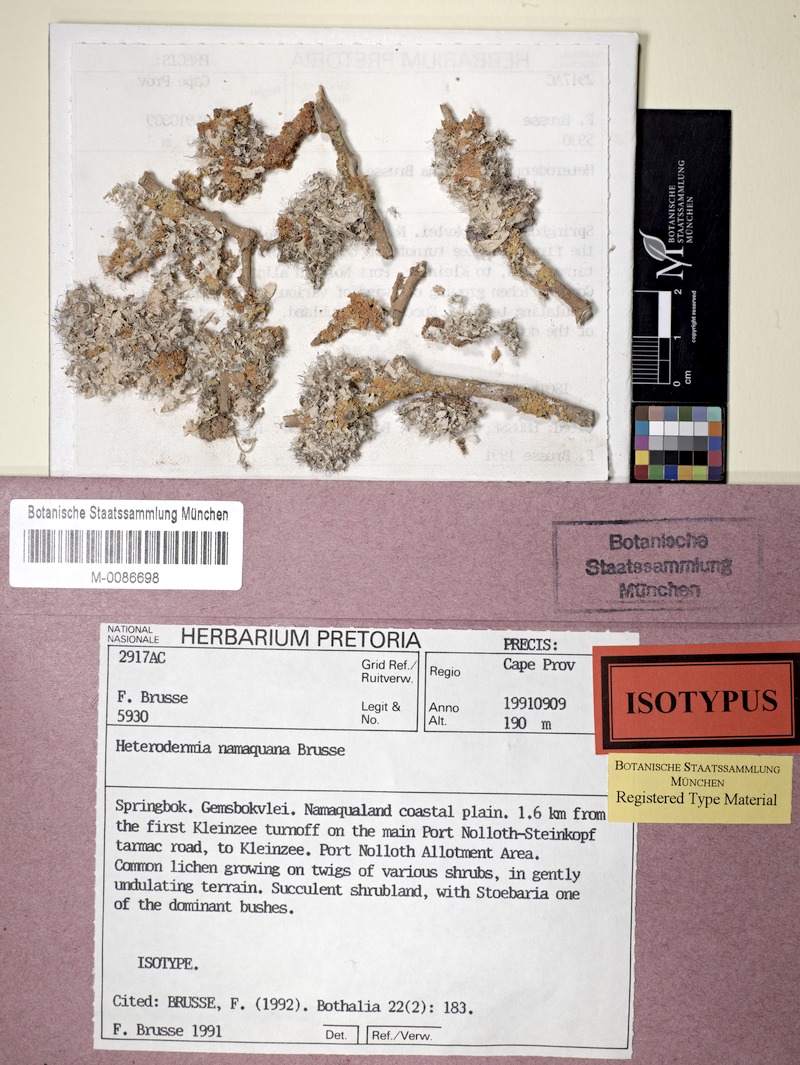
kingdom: Fungi
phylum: Ascomycota
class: Lecanoromycetes
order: Caliciales
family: Physciaceae
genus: Heterodermia
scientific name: Heterodermia namaquana
